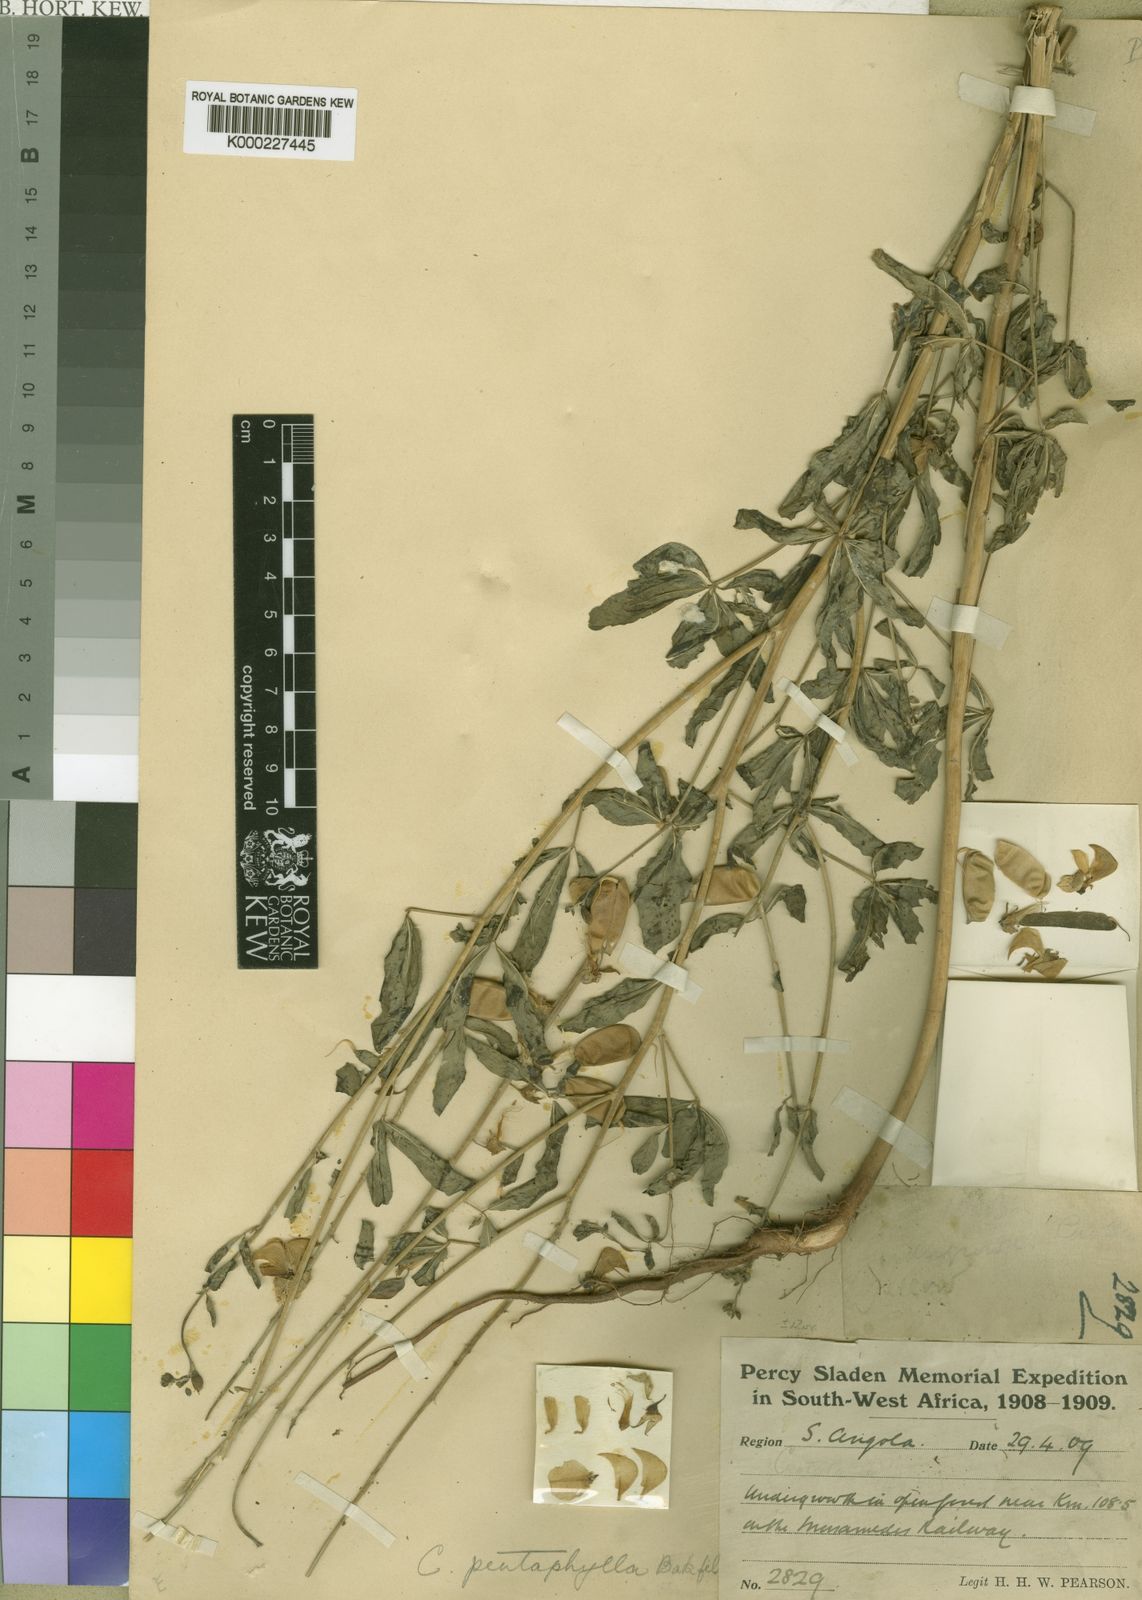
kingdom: Plantae
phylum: Tracheophyta
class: Magnoliopsida
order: Fabales
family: Fabaceae
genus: Crotalaria
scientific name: Crotalaria pentaphylla
